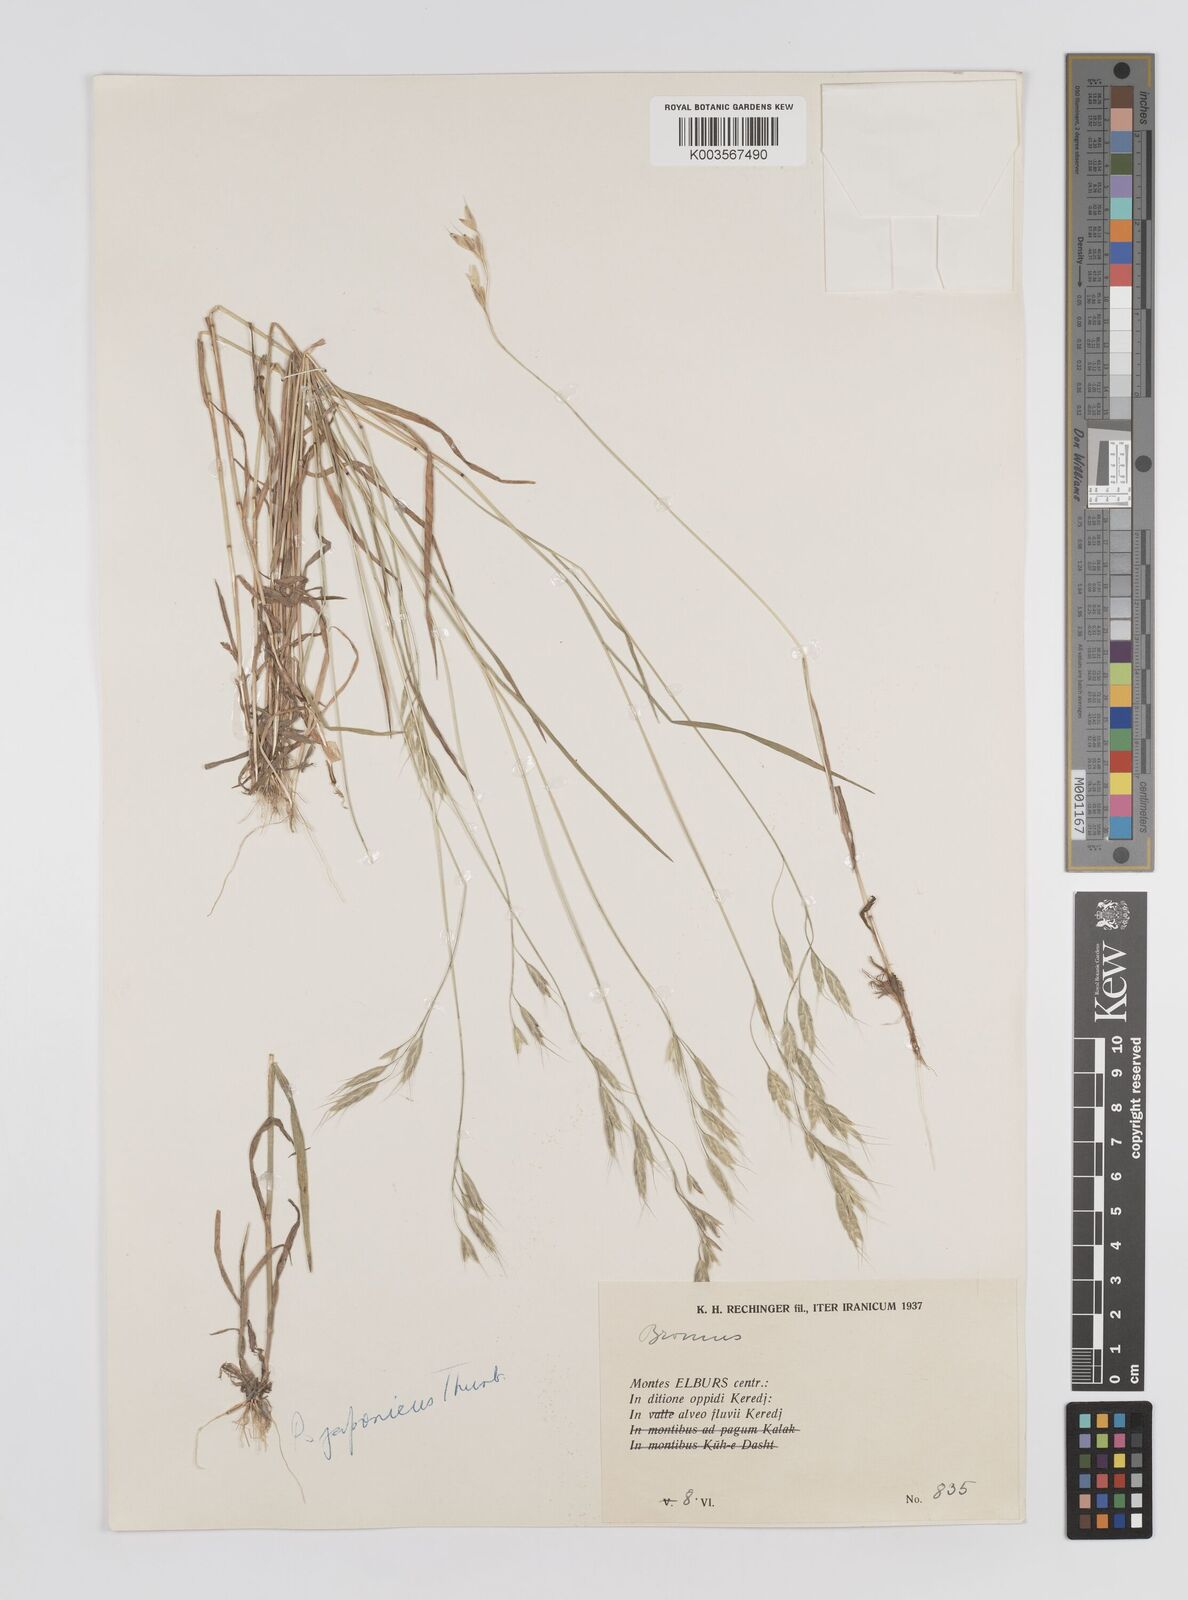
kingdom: Plantae
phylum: Tracheophyta
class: Liliopsida
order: Poales
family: Poaceae
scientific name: Poaceae
